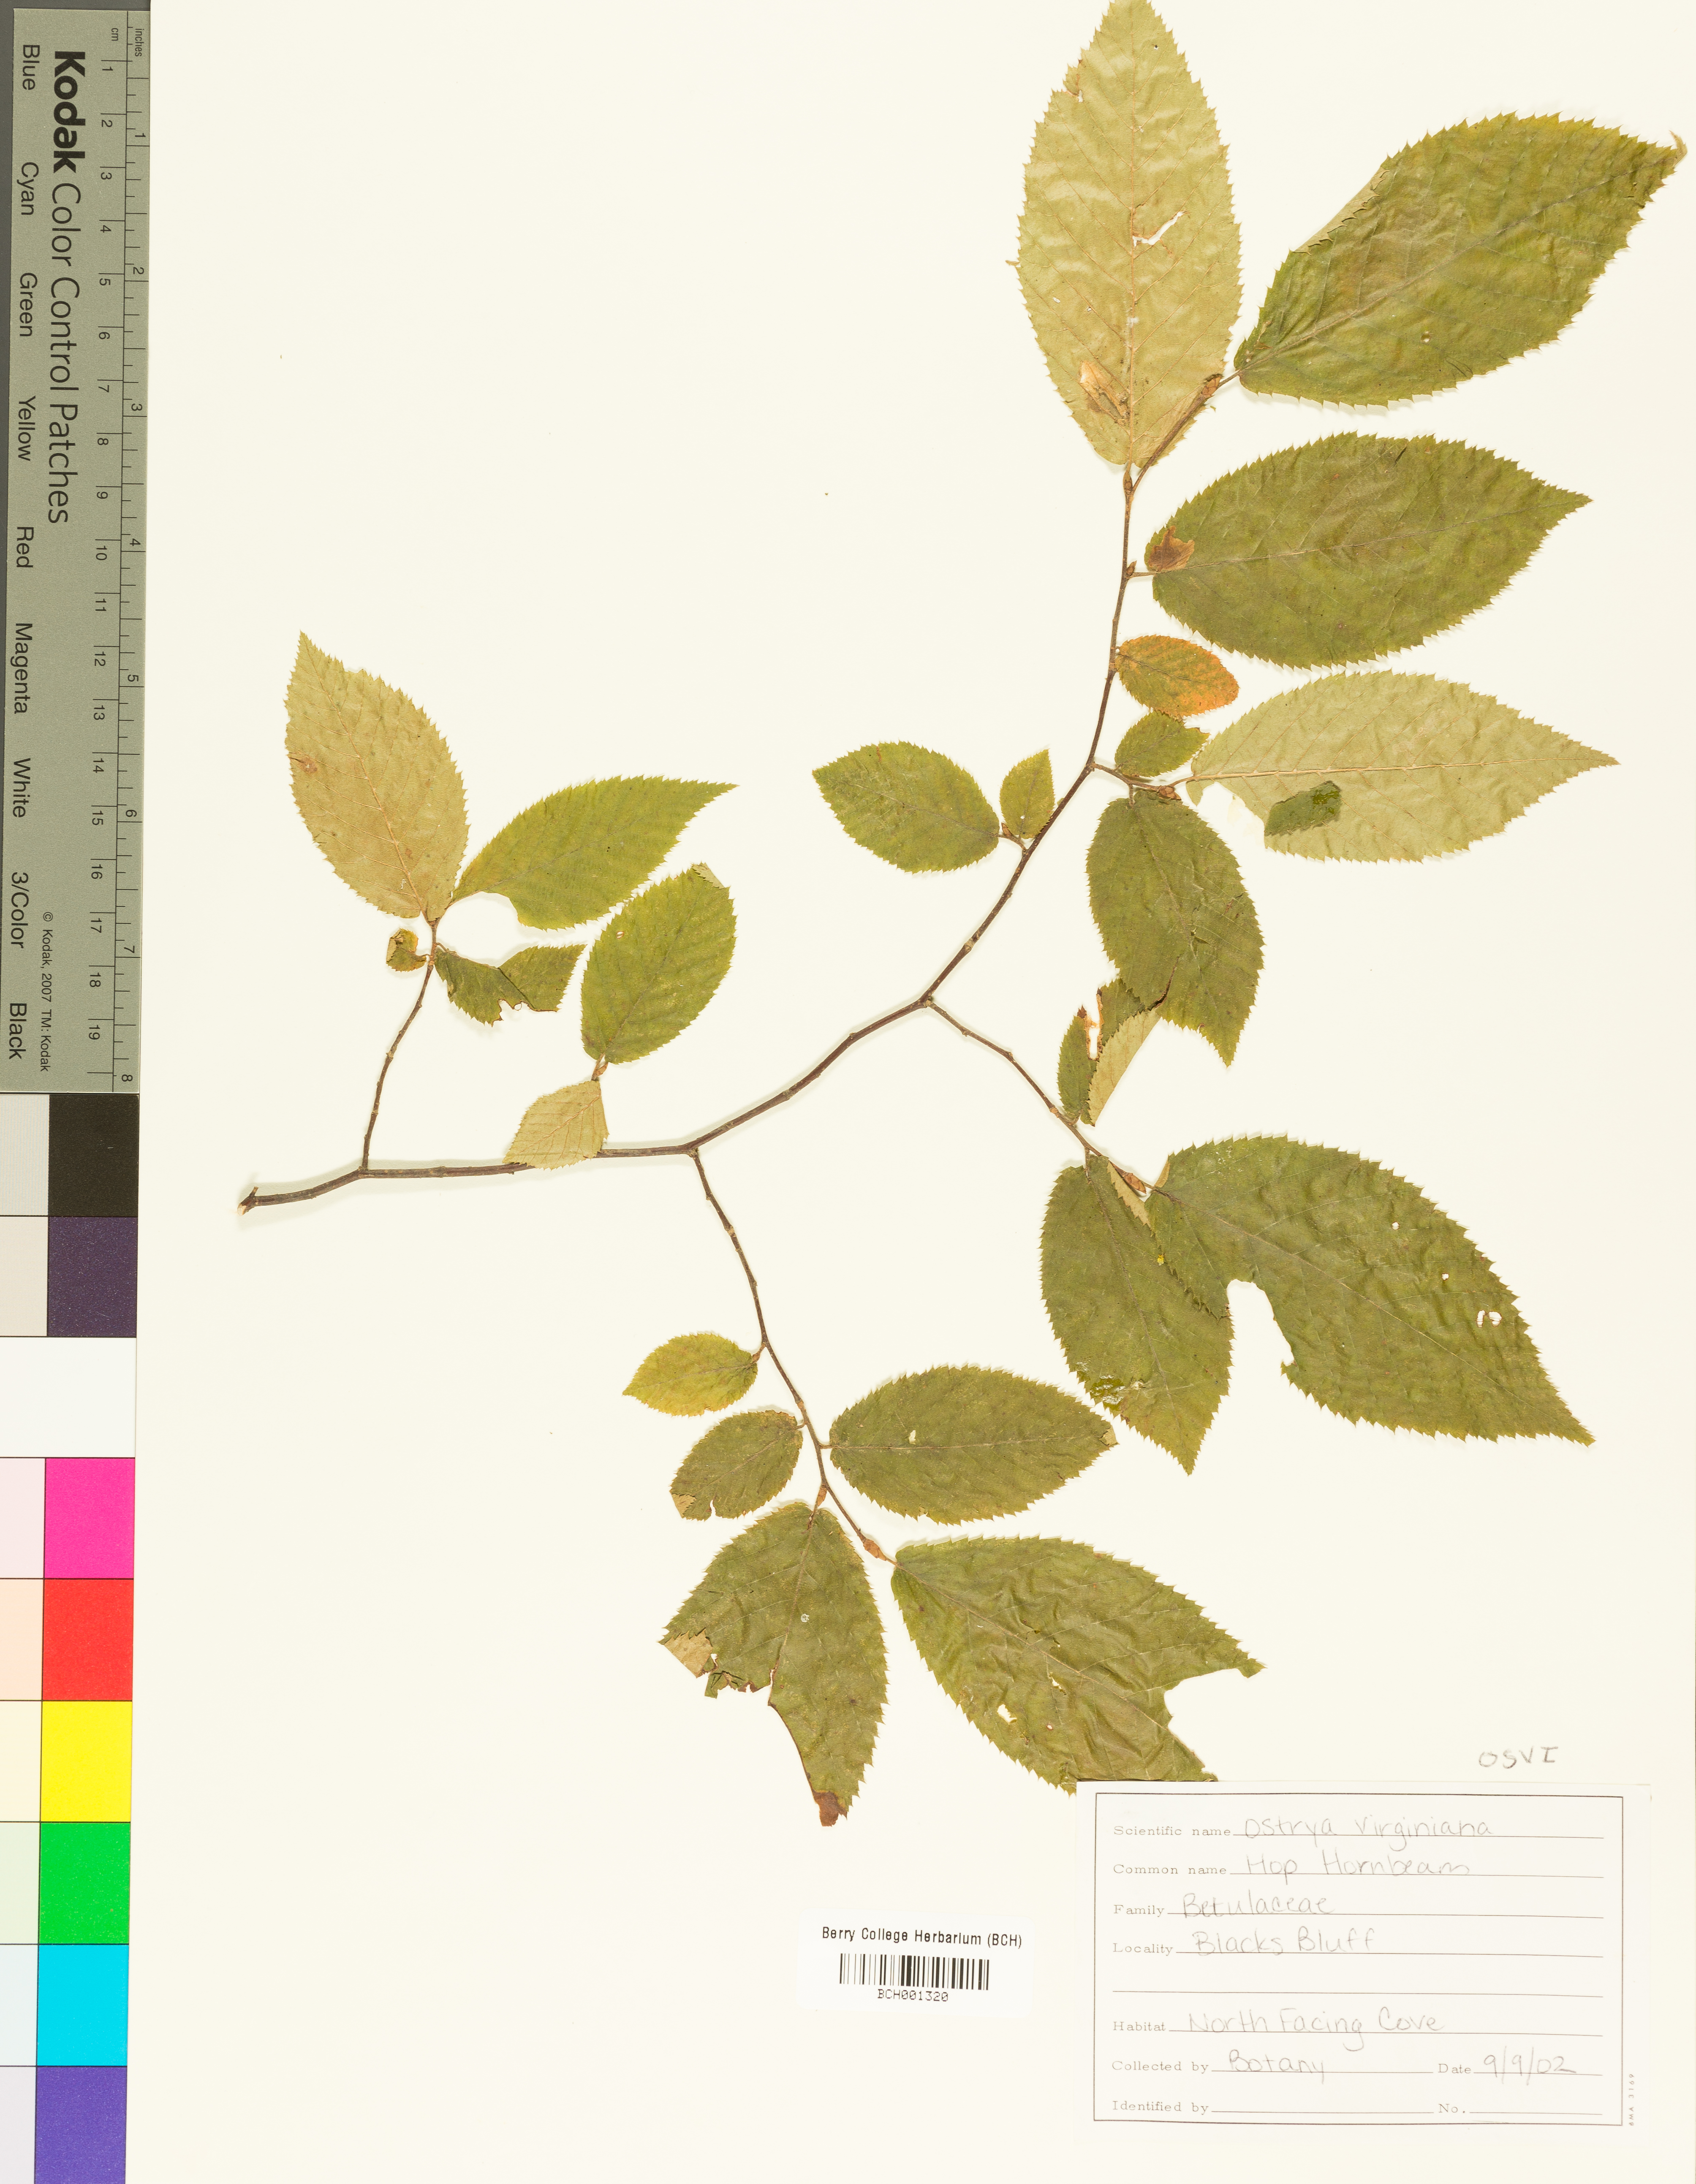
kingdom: Plantae
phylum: Tracheophyta
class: Magnoliopsida
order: Fagales
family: Betulaceae
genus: Ostrya
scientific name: Ostrya virginiana
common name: Ironwood
